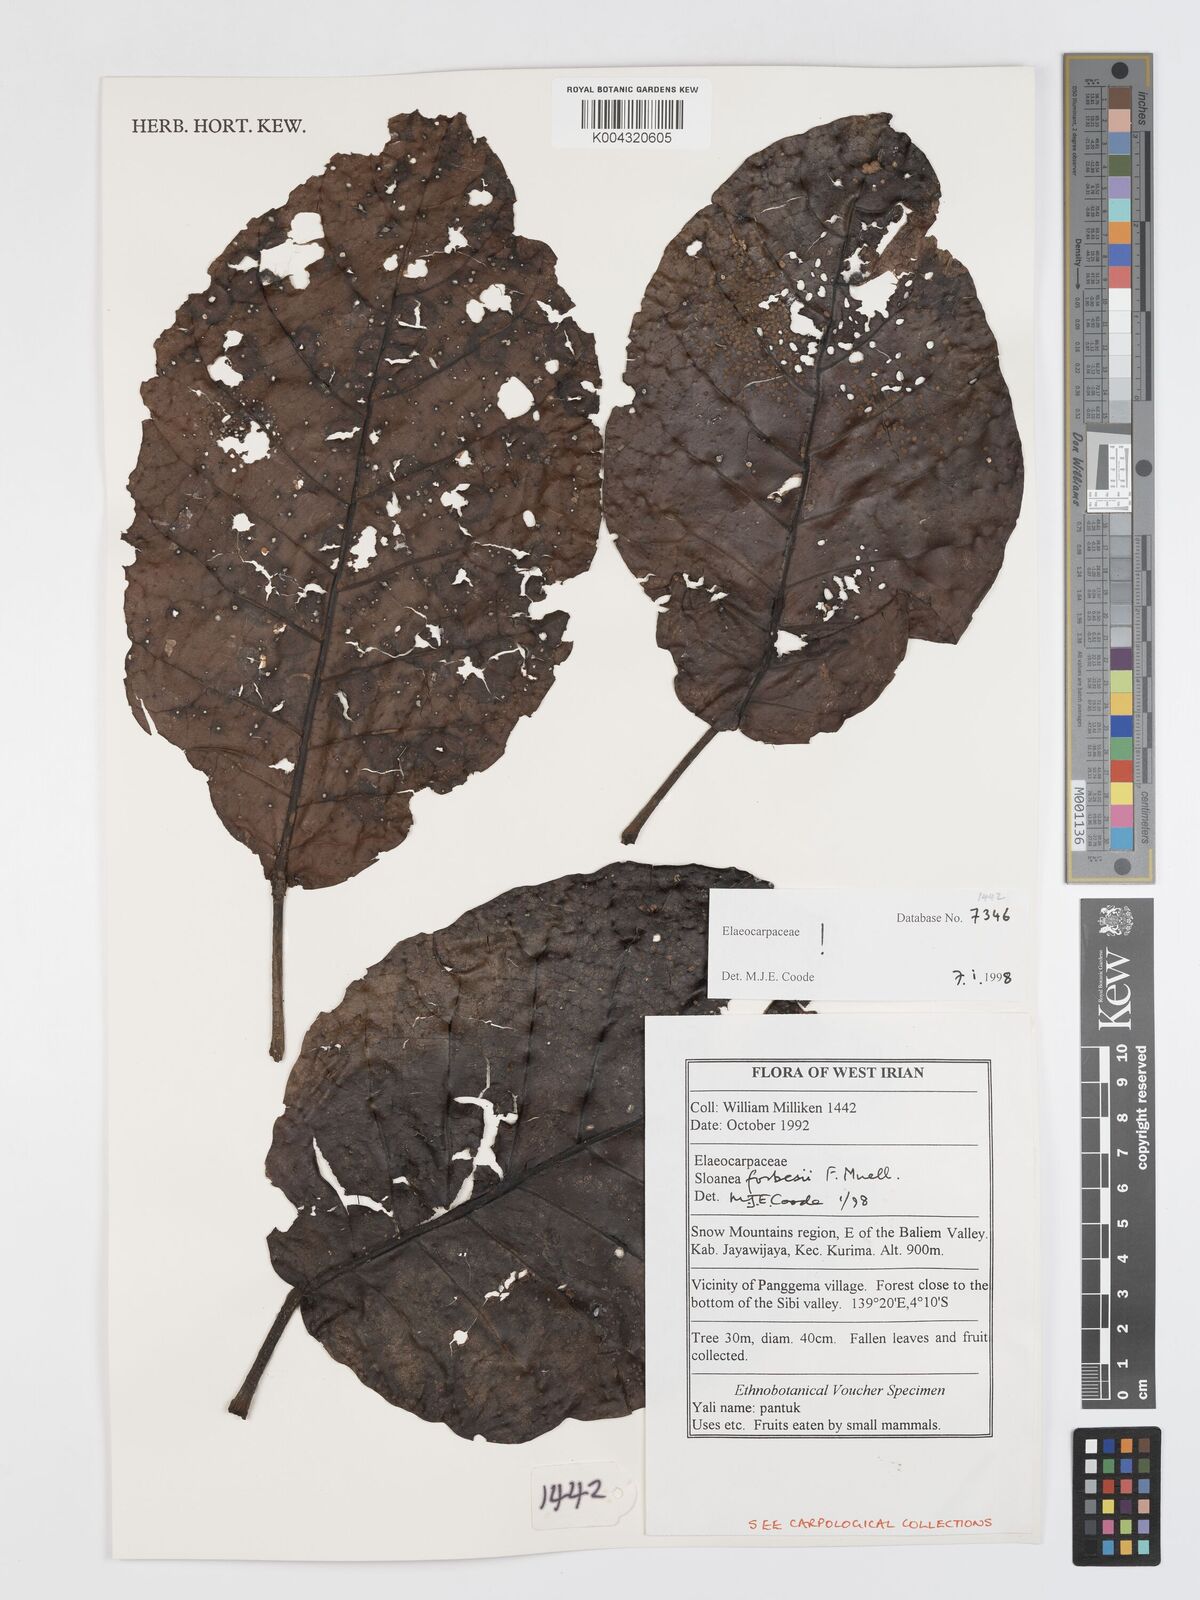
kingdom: Plantae
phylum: Tracheophyta
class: Magnoliopsida
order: Oxalidales
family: Elaeocarpaceae
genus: Sloanea
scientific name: Sloanea forbesii
